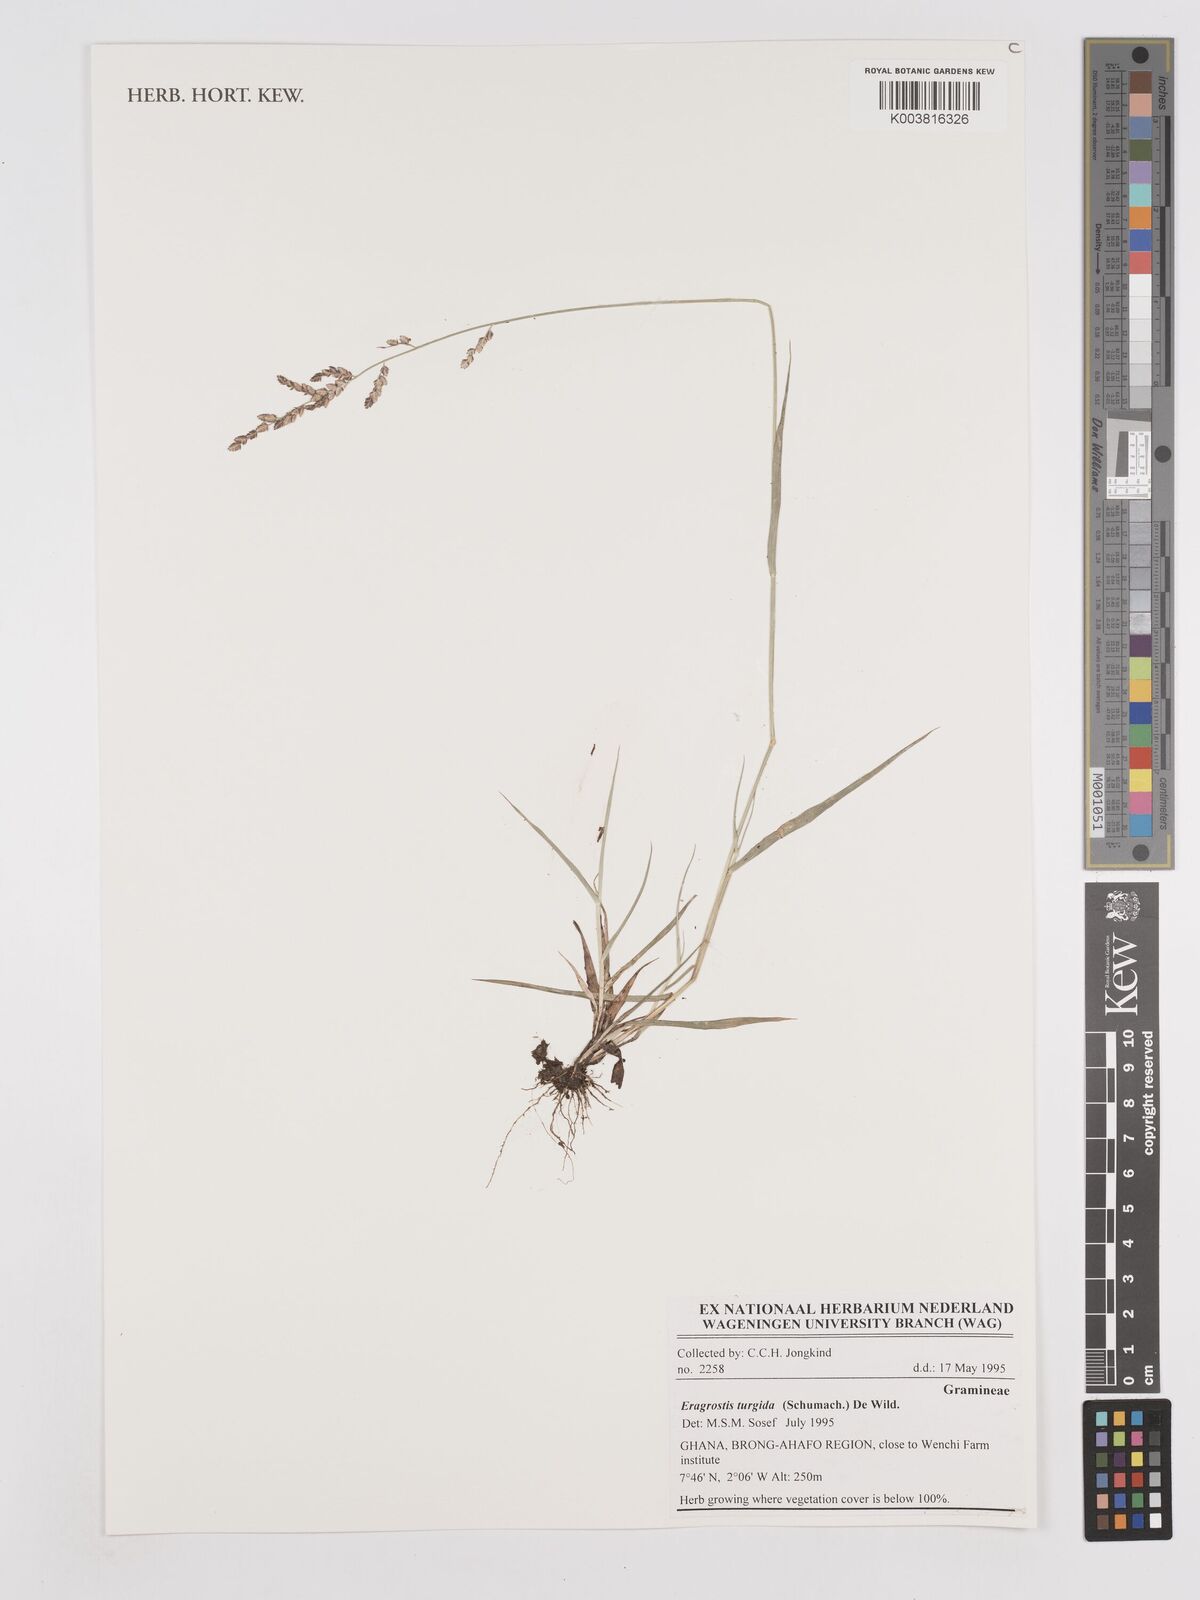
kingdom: Plantae
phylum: Tracheophyta
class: Liliopsida
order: Poales
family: Poaceae
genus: Eragrostis
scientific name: Eragrostis turgida
